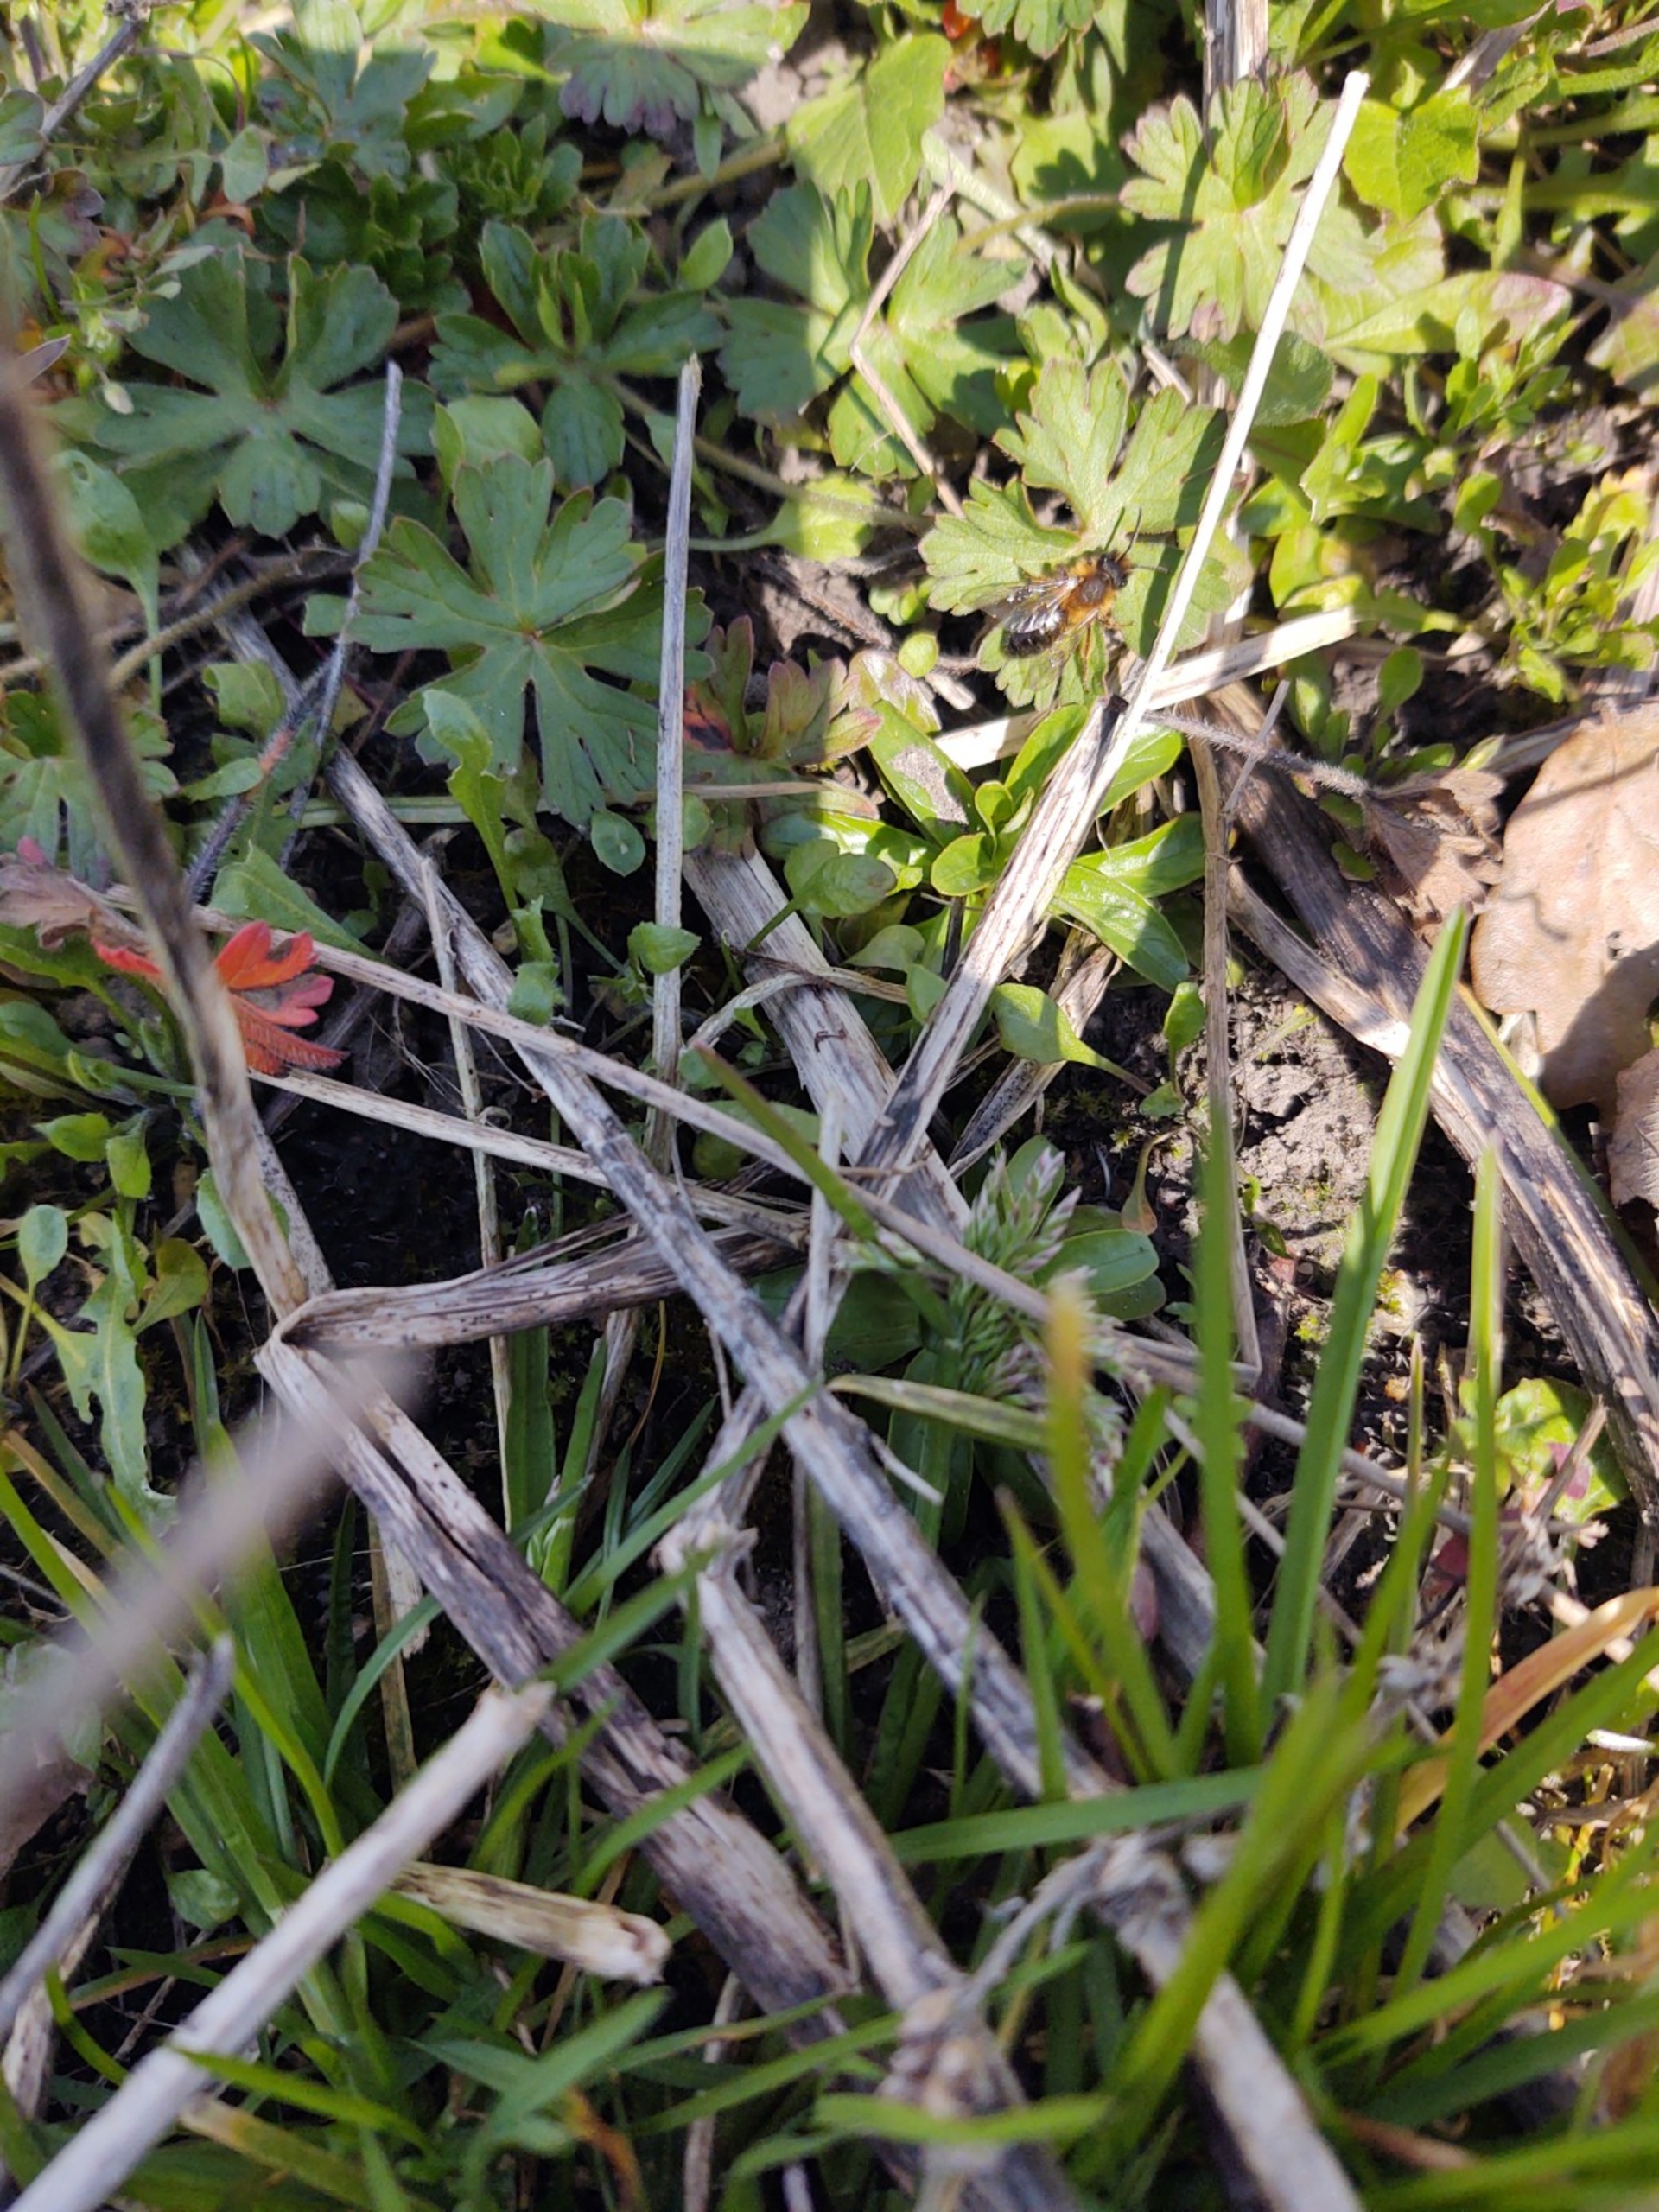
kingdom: Animalia
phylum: Arthropoda
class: Insecta
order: Hymenoptera
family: Andrenidae
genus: Andrena
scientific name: Andrena
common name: Jordbier
